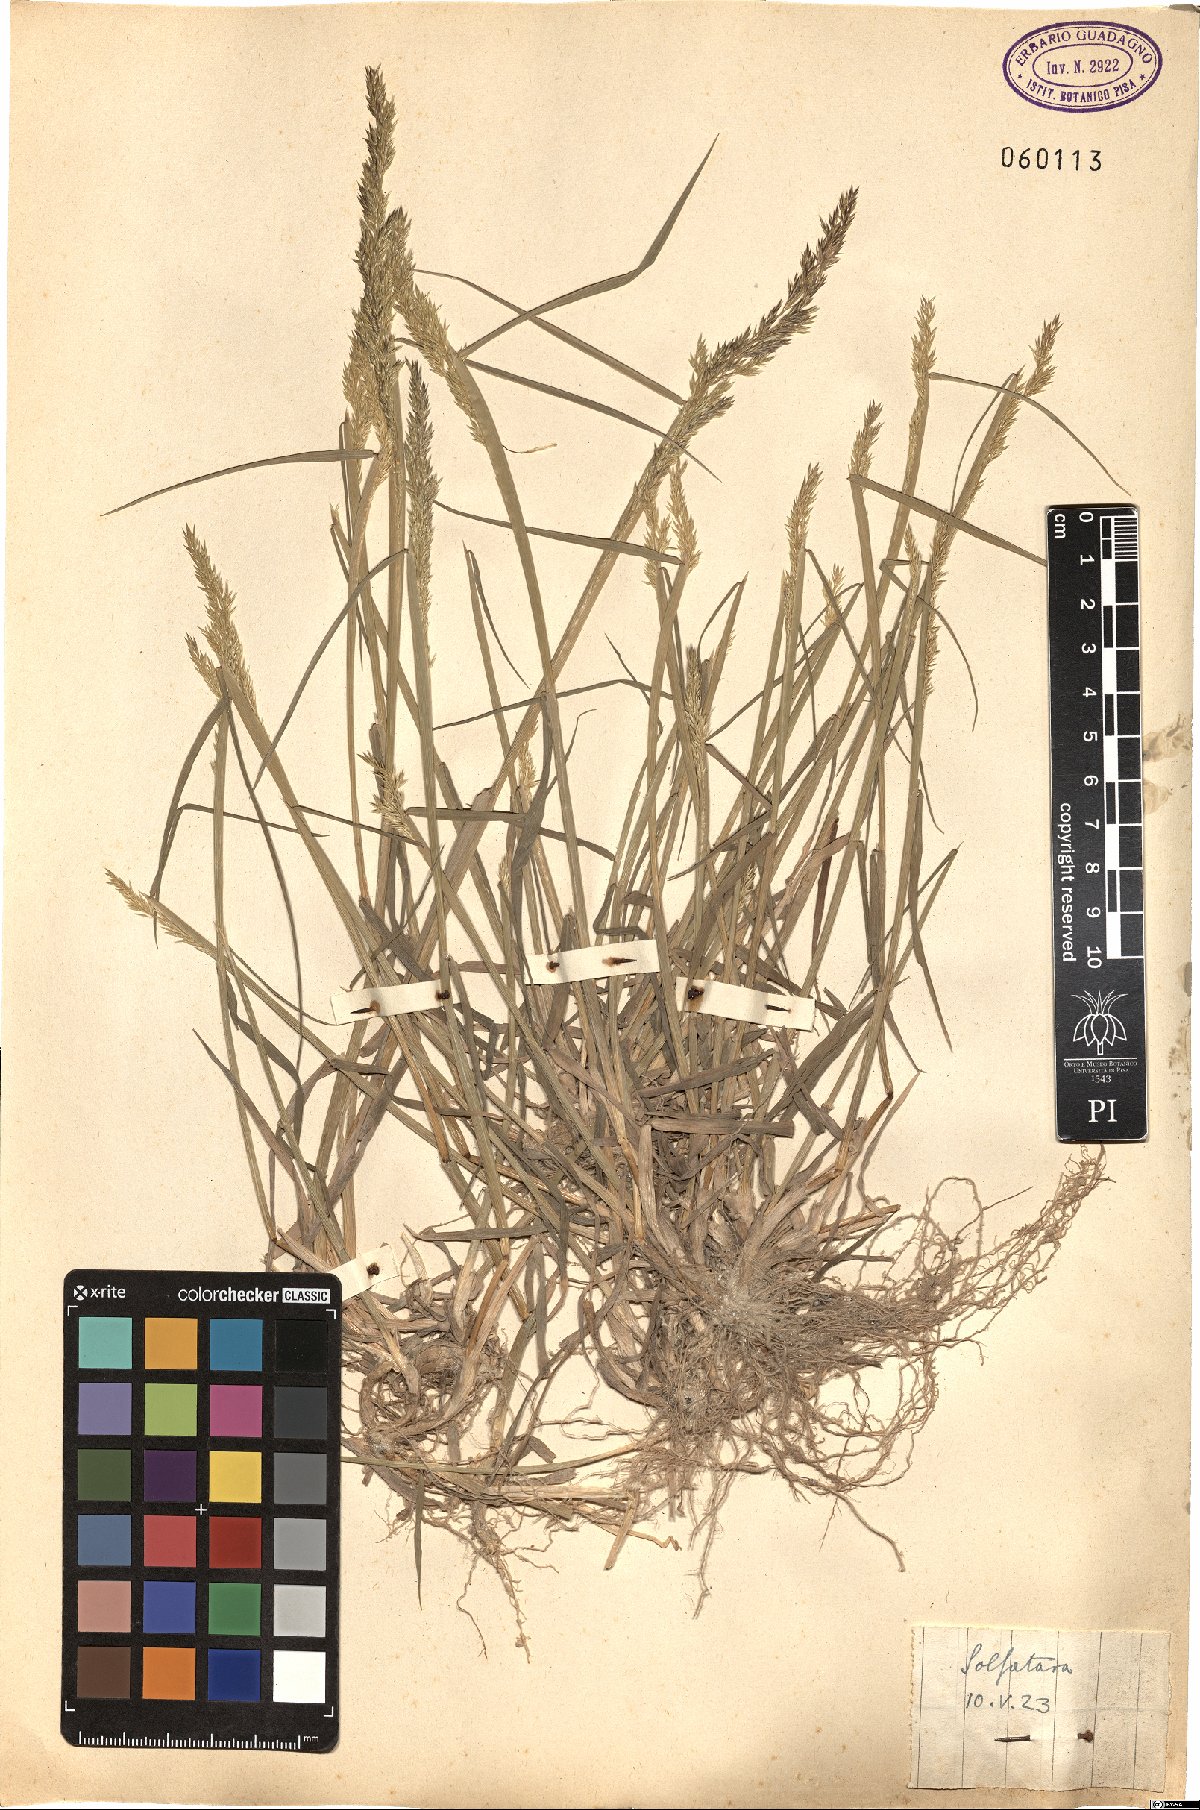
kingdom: Plantae
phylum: Tracheophyta
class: Liliopsida
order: Poales
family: Poaceae
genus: Agrostis
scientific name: Agrostis
